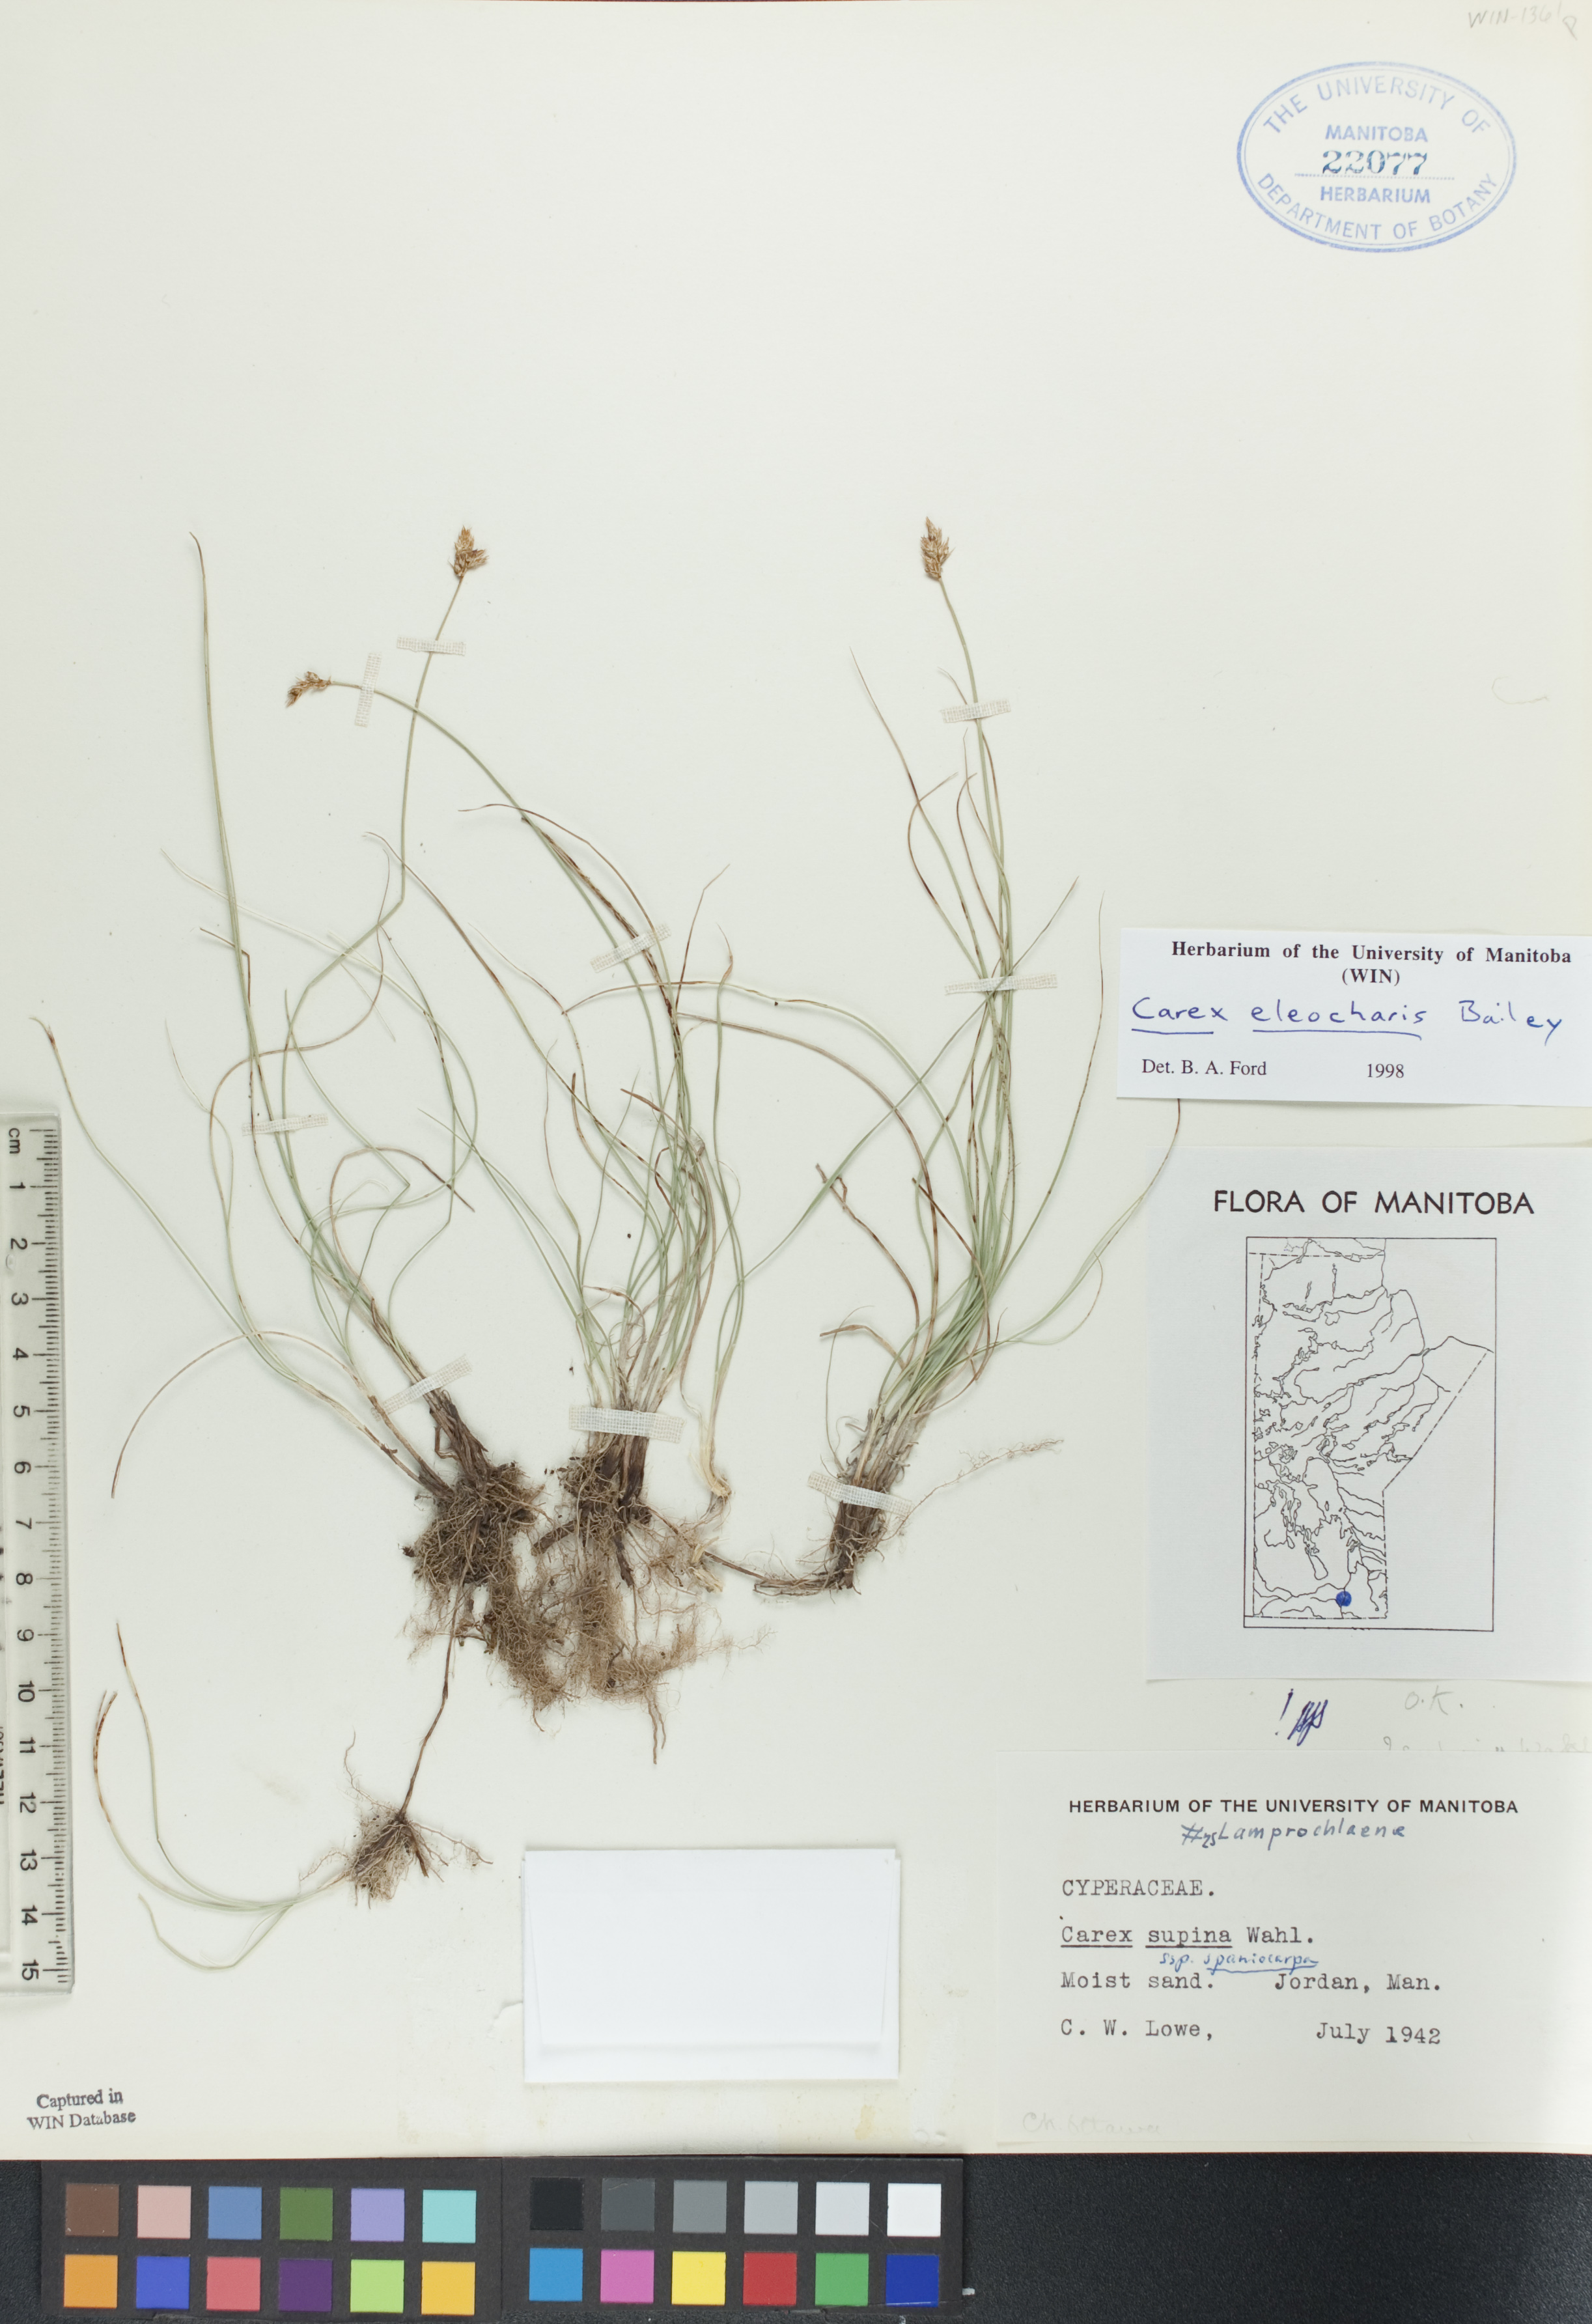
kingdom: Plantae
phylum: Tracheophyta
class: Liliopsida
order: Poales
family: Cyperaceae
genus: Carex
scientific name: Carex duriuscula
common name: Involute-leaved sedge
